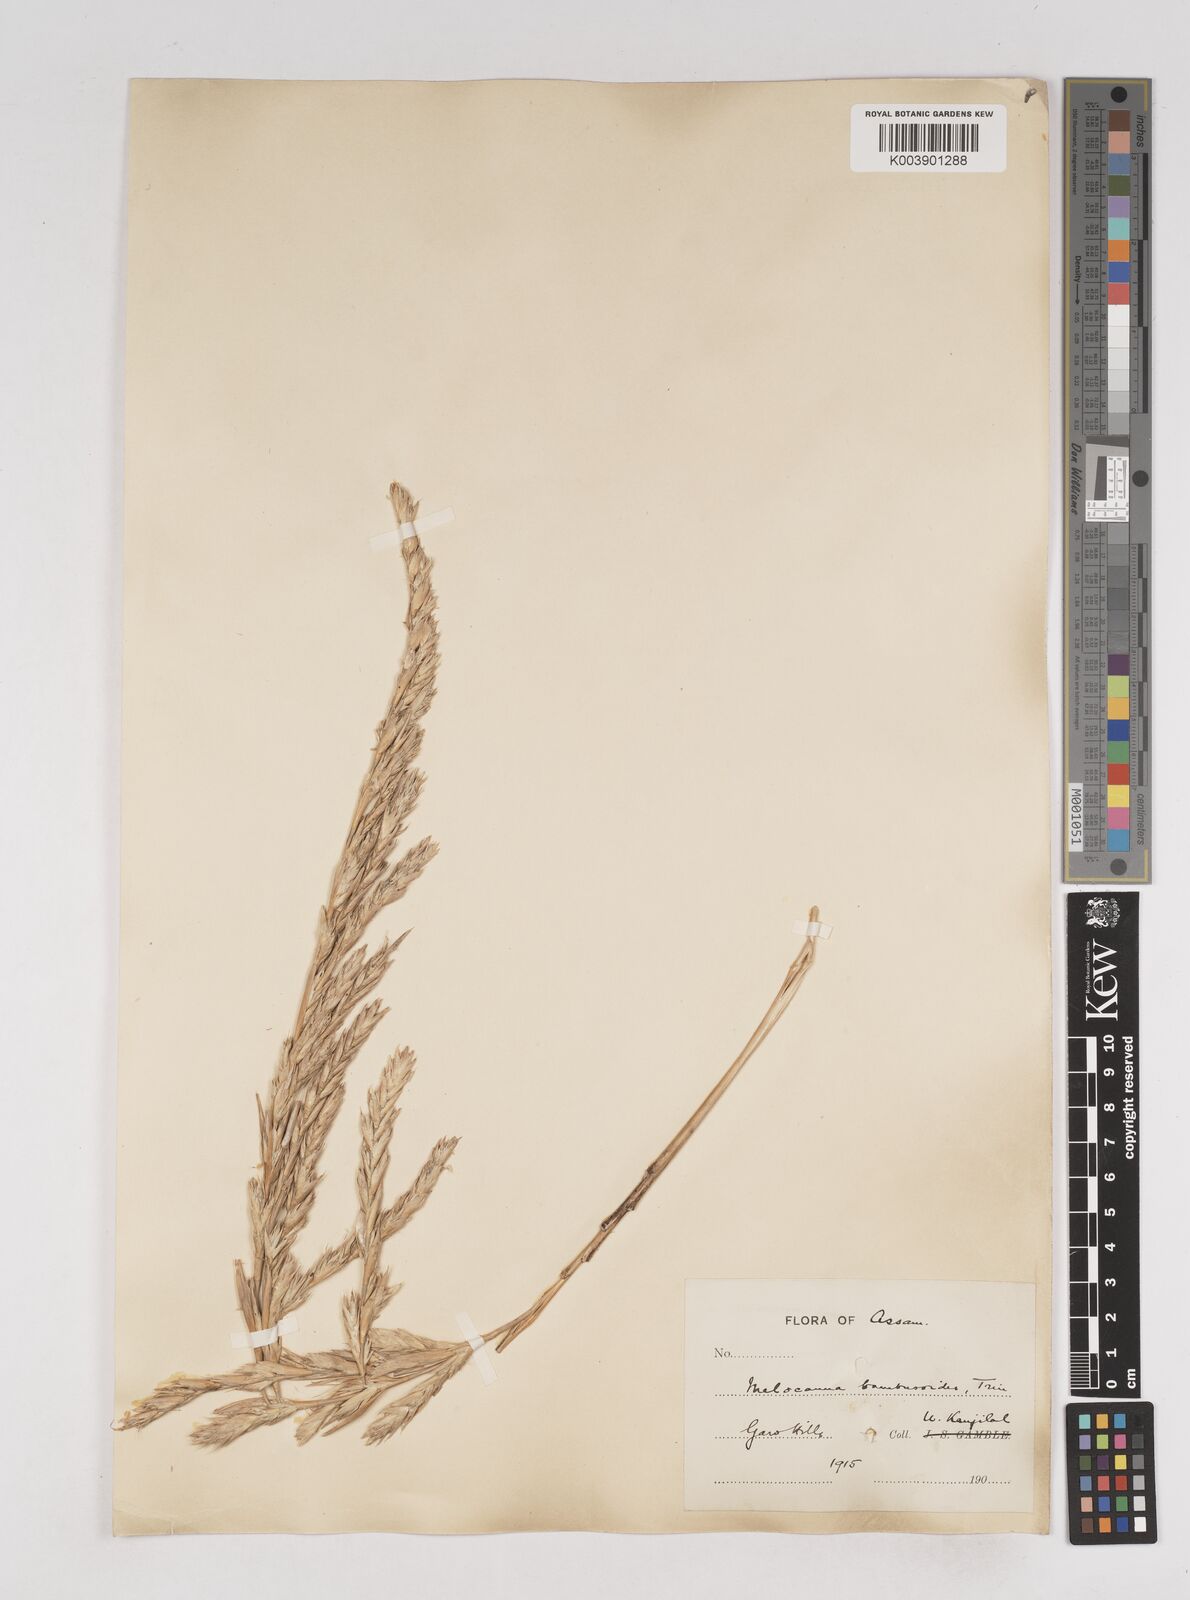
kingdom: Plantae
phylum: Tracheophyta
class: Liliopsida
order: Poales
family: Poaceae
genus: Melocanna
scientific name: Melocanna baccifera
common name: Berry bamboo
